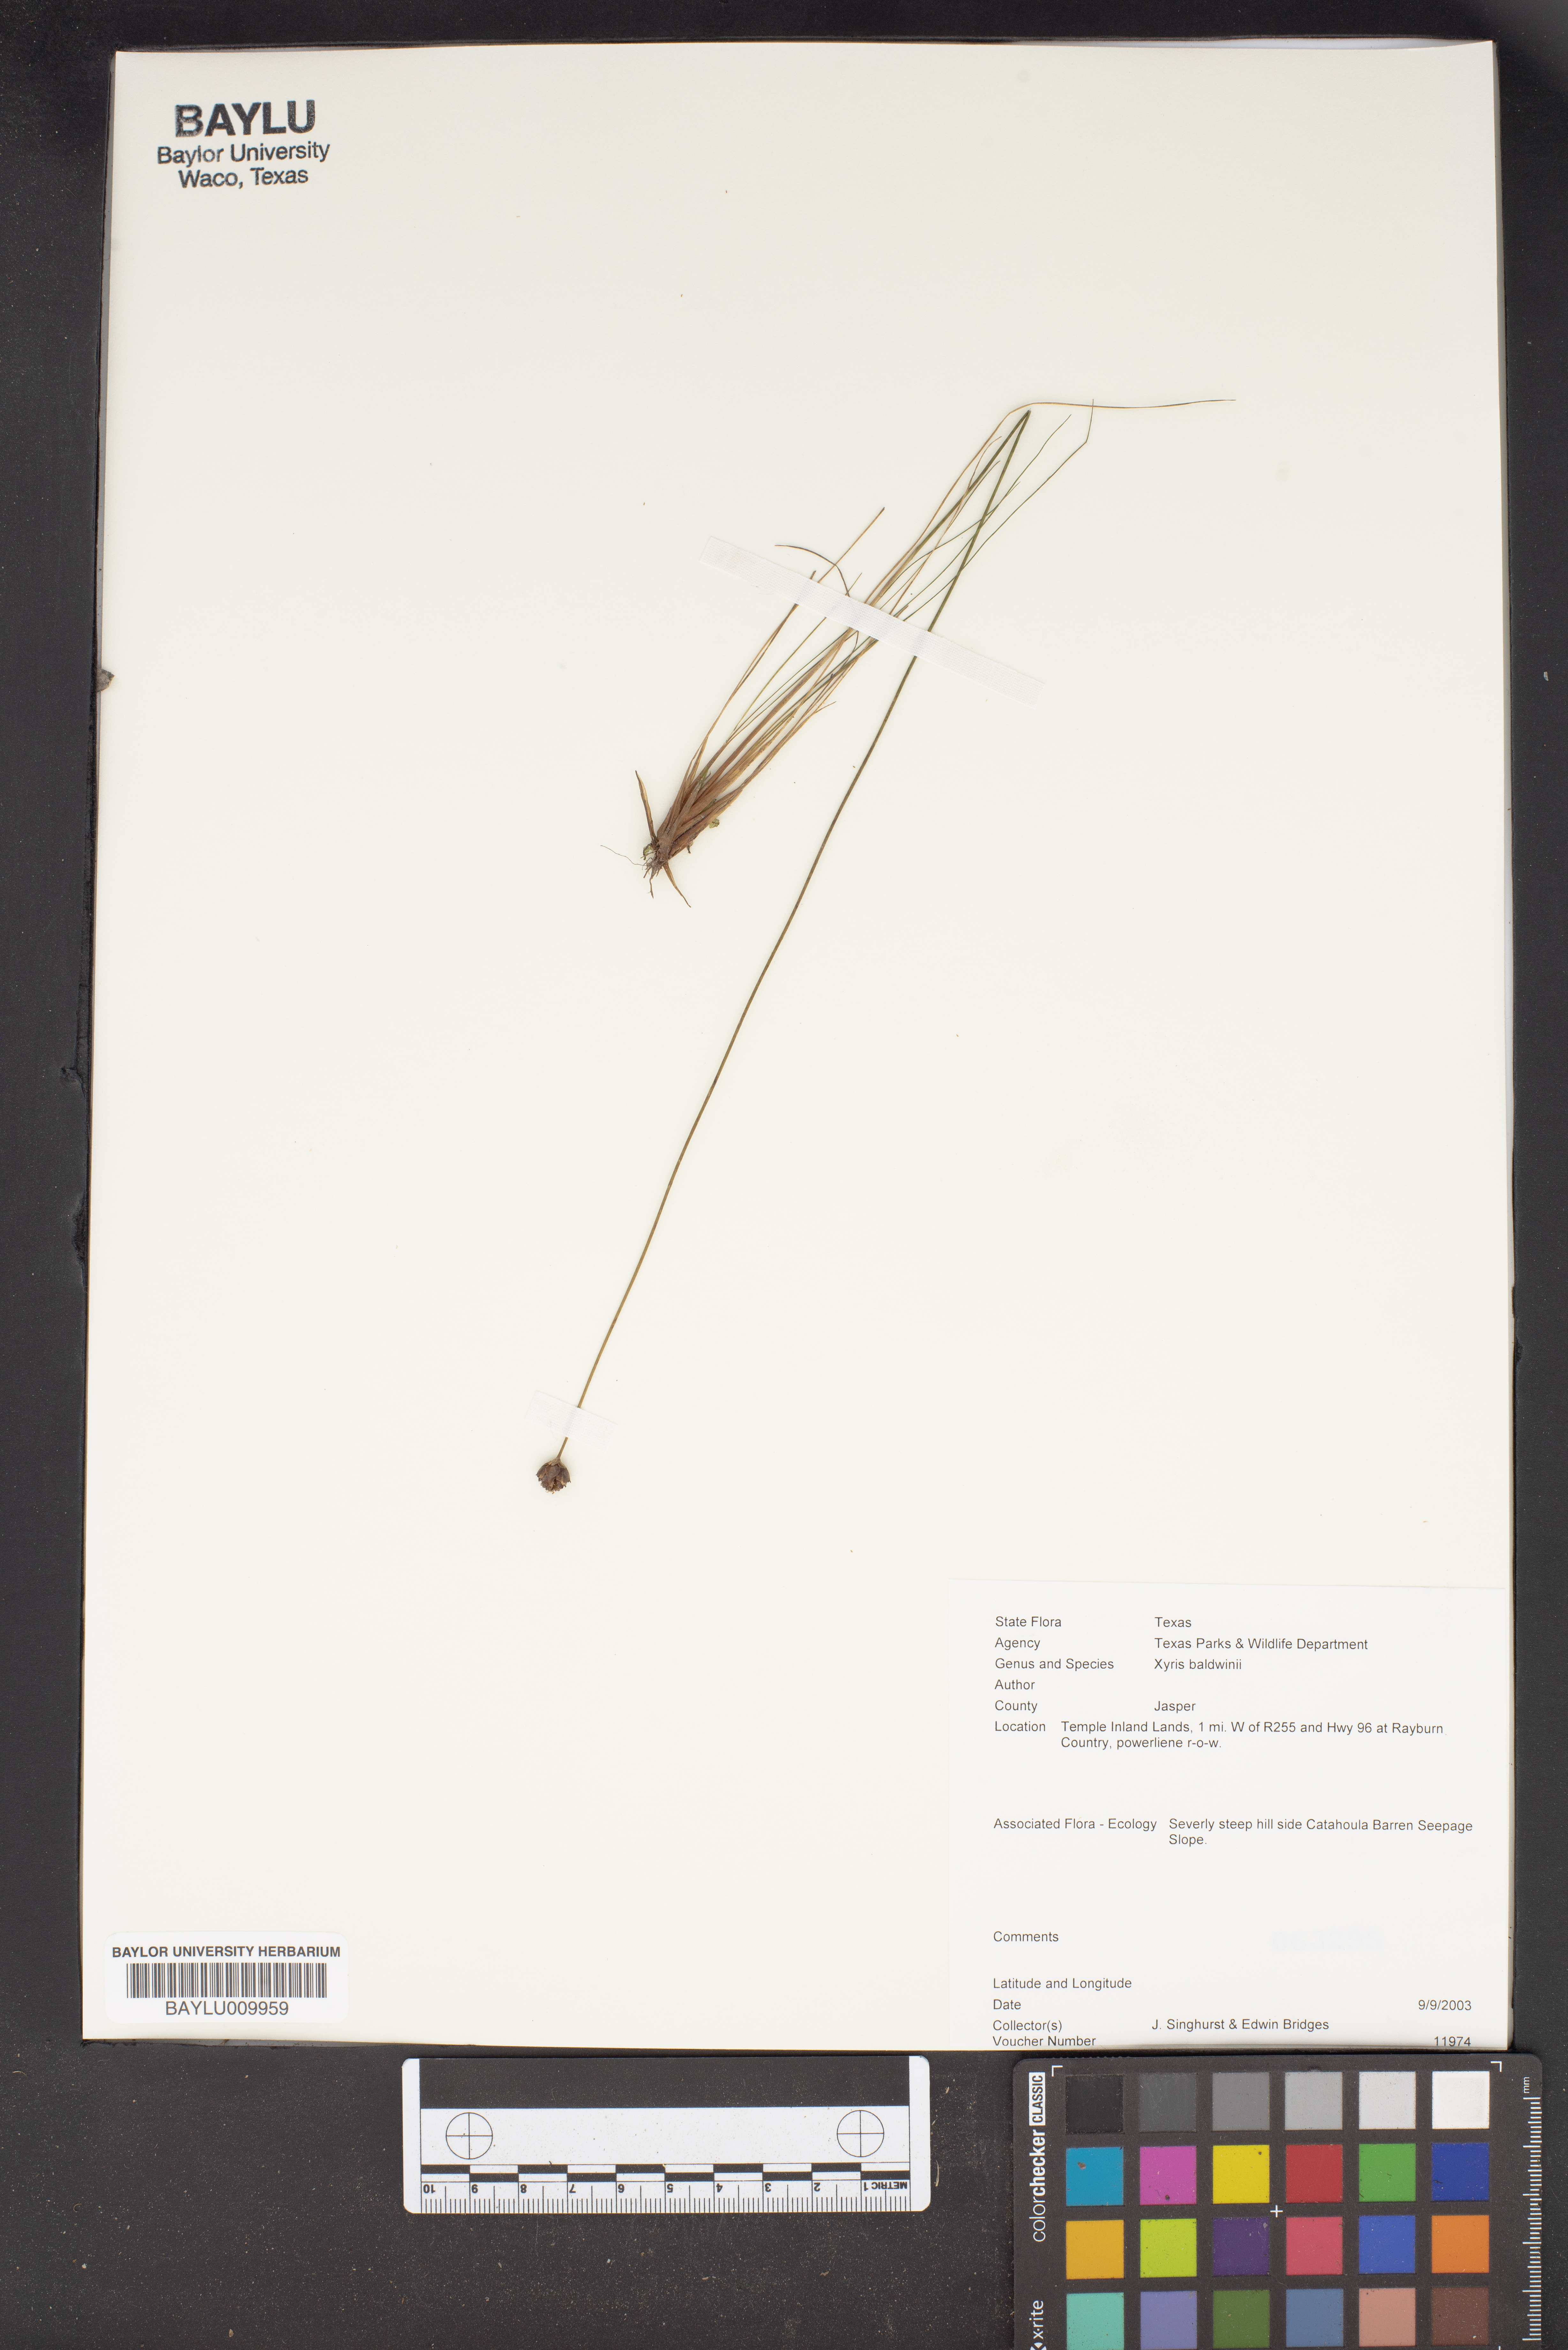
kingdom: Plantae
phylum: Tracheophyta
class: Liliopsida
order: Poales
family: Xyridaceae
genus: Xyris
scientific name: Xyris
